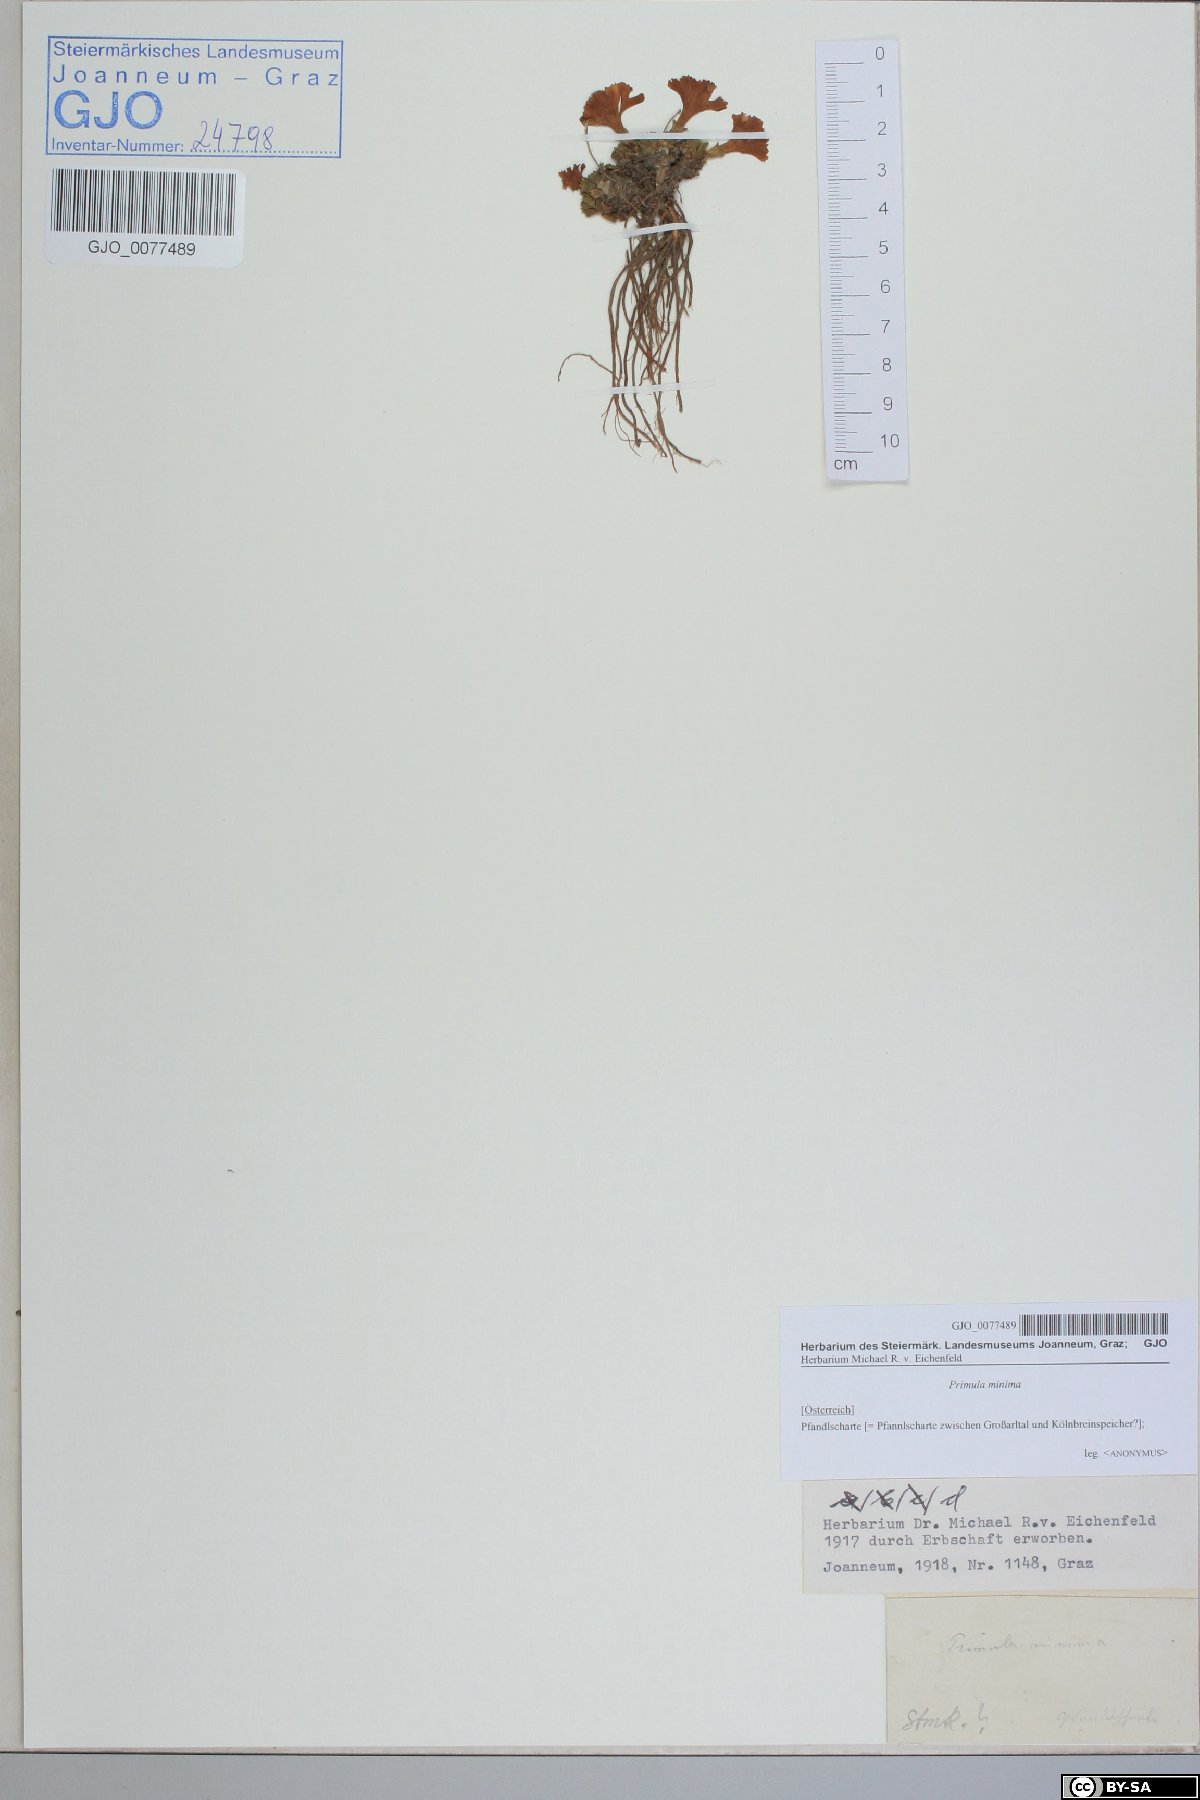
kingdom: Plantae
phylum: Tracheophyta
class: Magnoliopsida
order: Ericales
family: Primulaceae
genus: Primula
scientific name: Primula minima
